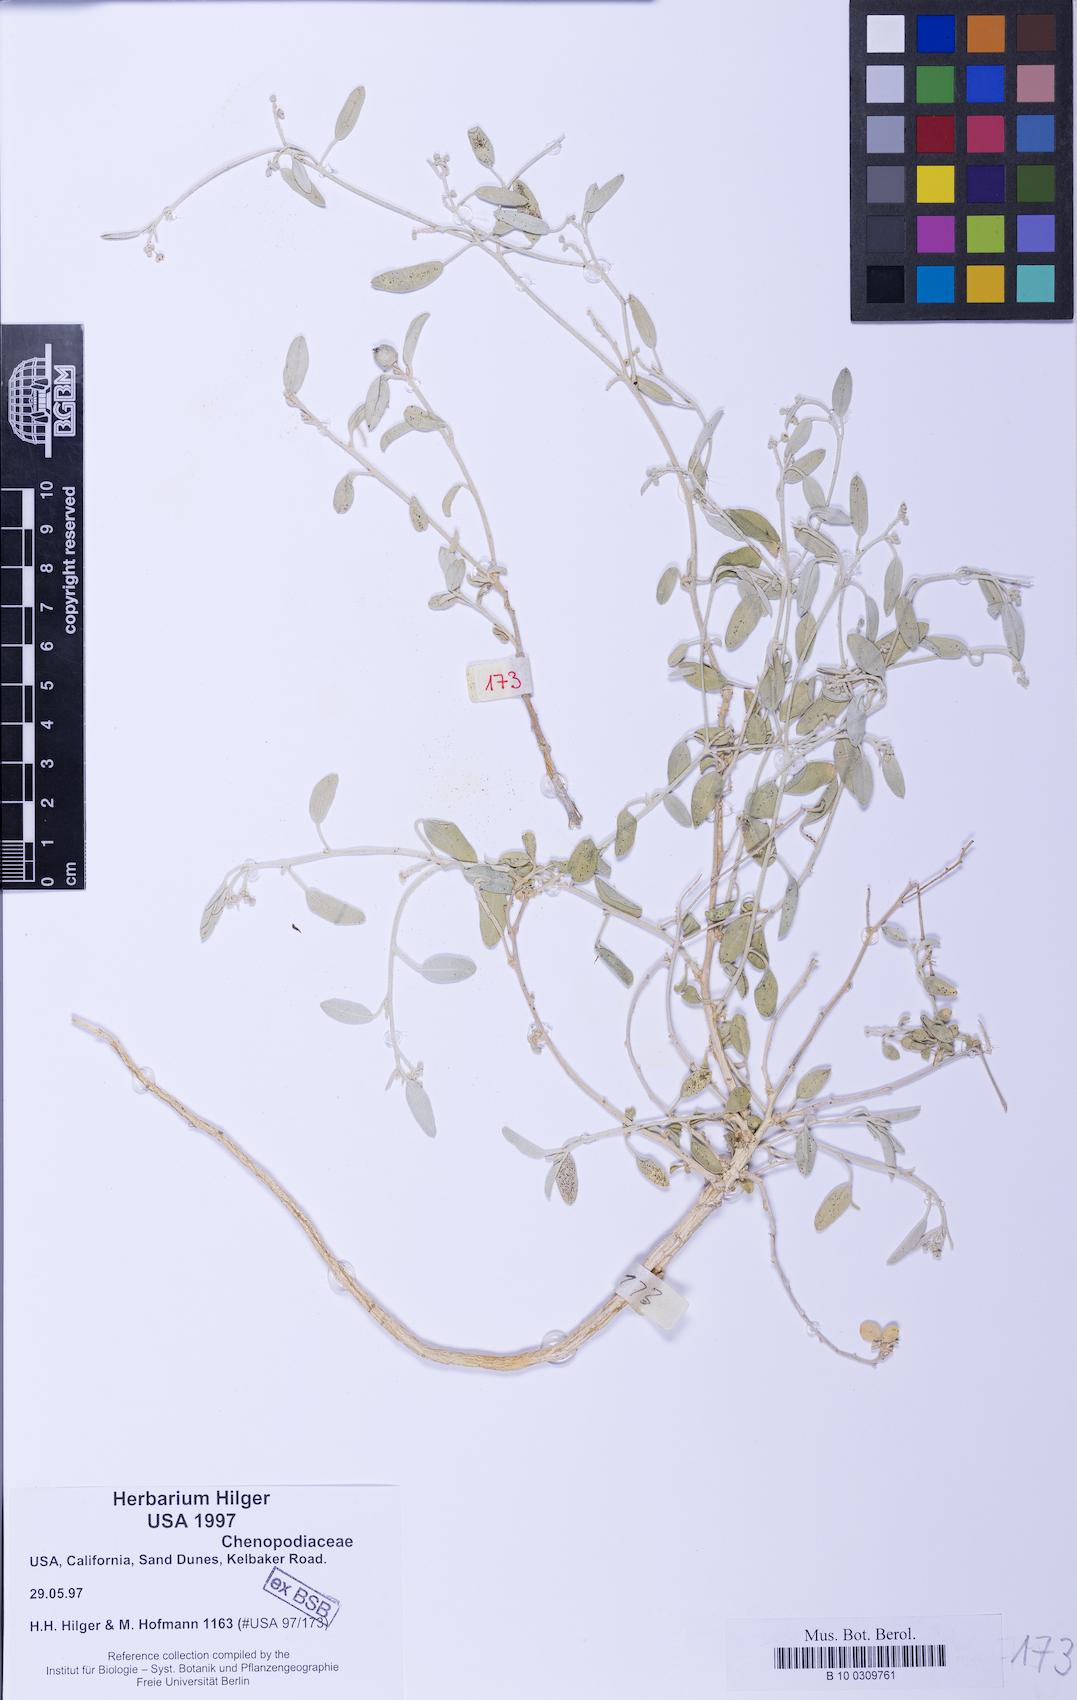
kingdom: Plantae
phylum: Tracheophyta
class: Magnoliopsida
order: Malpighiales
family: Euphorbiaceae
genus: Croton
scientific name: Croton
